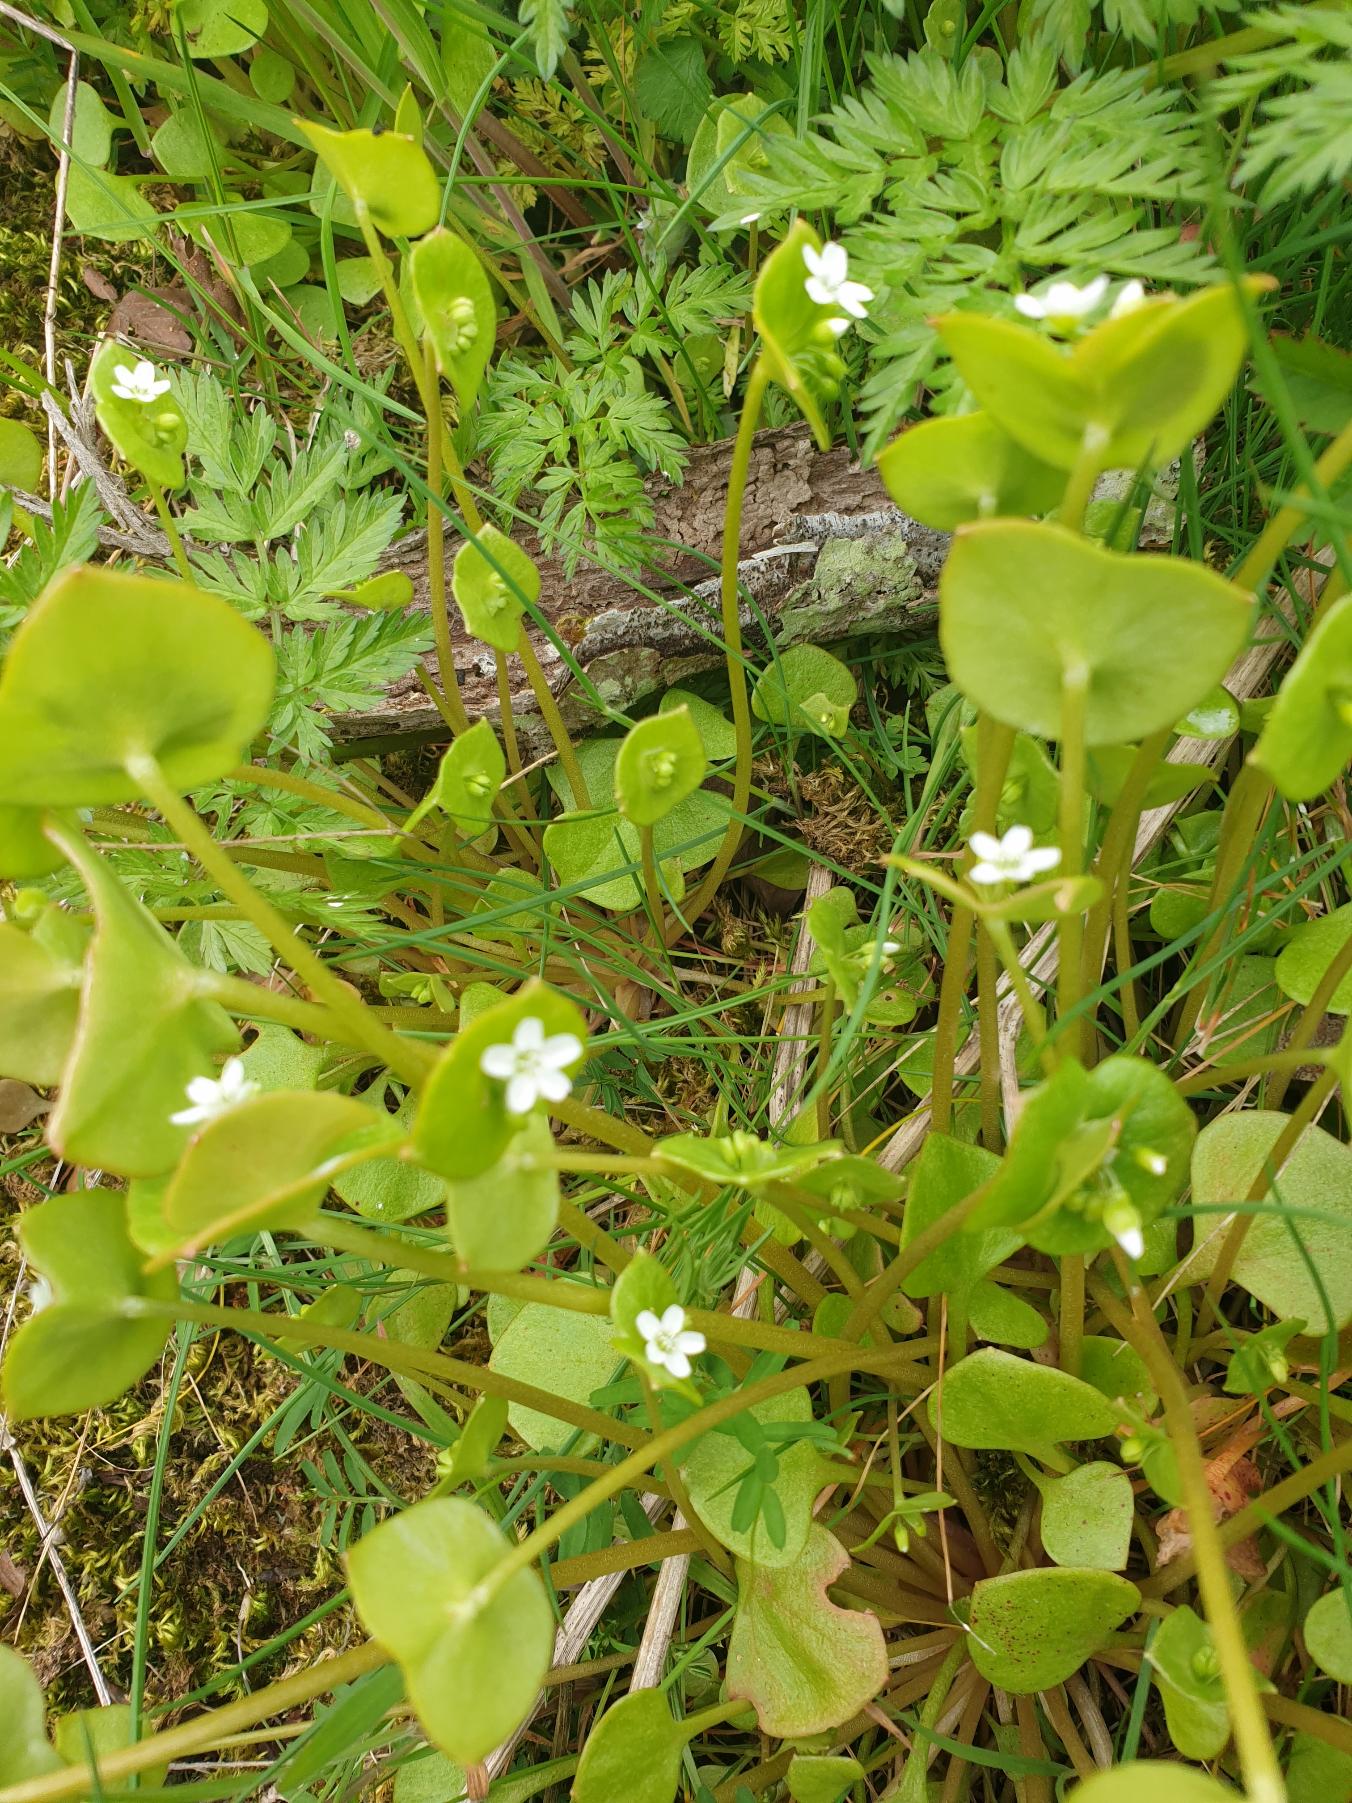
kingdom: Plantae
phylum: Tracheophyta
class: Magnoliopsida
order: Caryophyllales
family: Montiaceae
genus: Claytonia
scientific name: Claytonia perfoliata
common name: Spiselig vinterportulak
